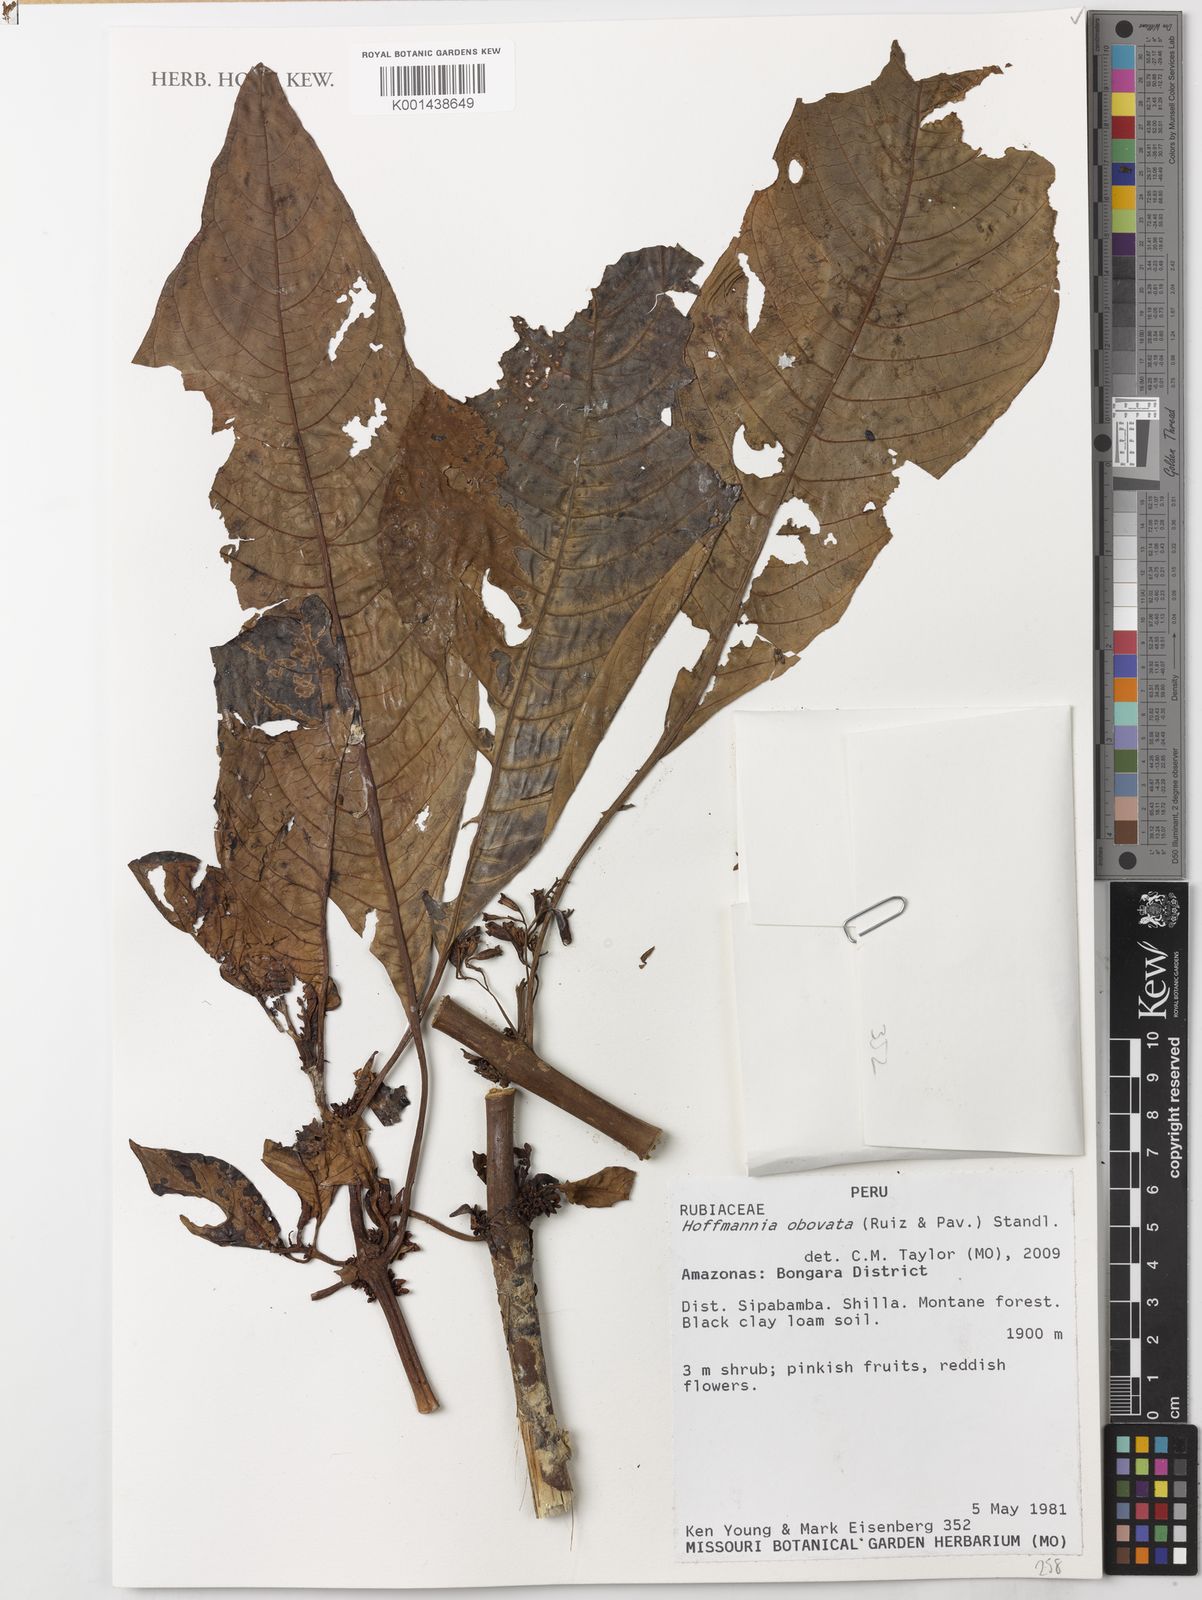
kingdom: Plantae
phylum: Tracheophyta
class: Magnoliopsida
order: Gentianales
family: Rubiaceae
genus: Hoffmannia
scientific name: Hoffmannia obovata
